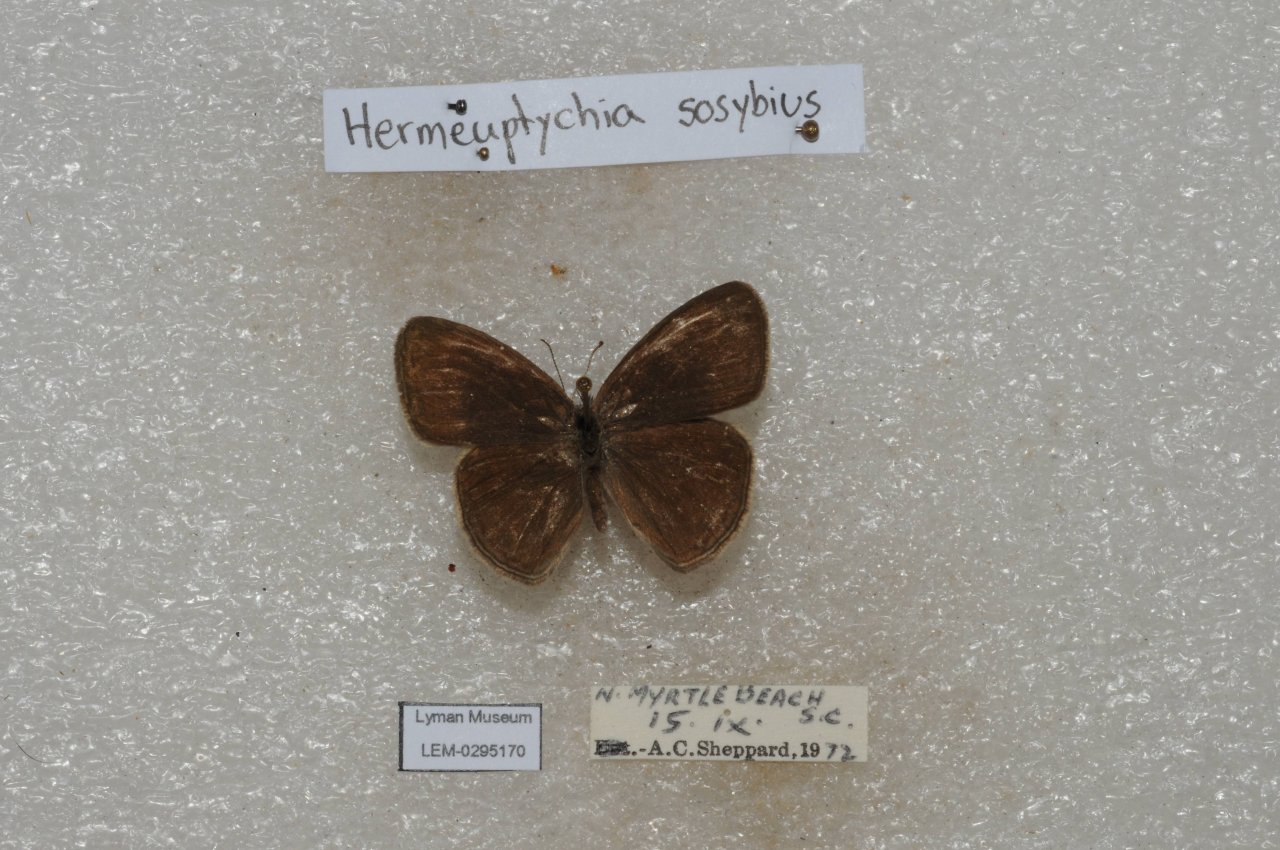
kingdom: Animalia
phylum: Arthropoda
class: Insecta
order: Lepidoptera
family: Nymphalidae
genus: Hermeuptychia
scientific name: Hermeuptychia hermes
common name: Carolina Satyr
